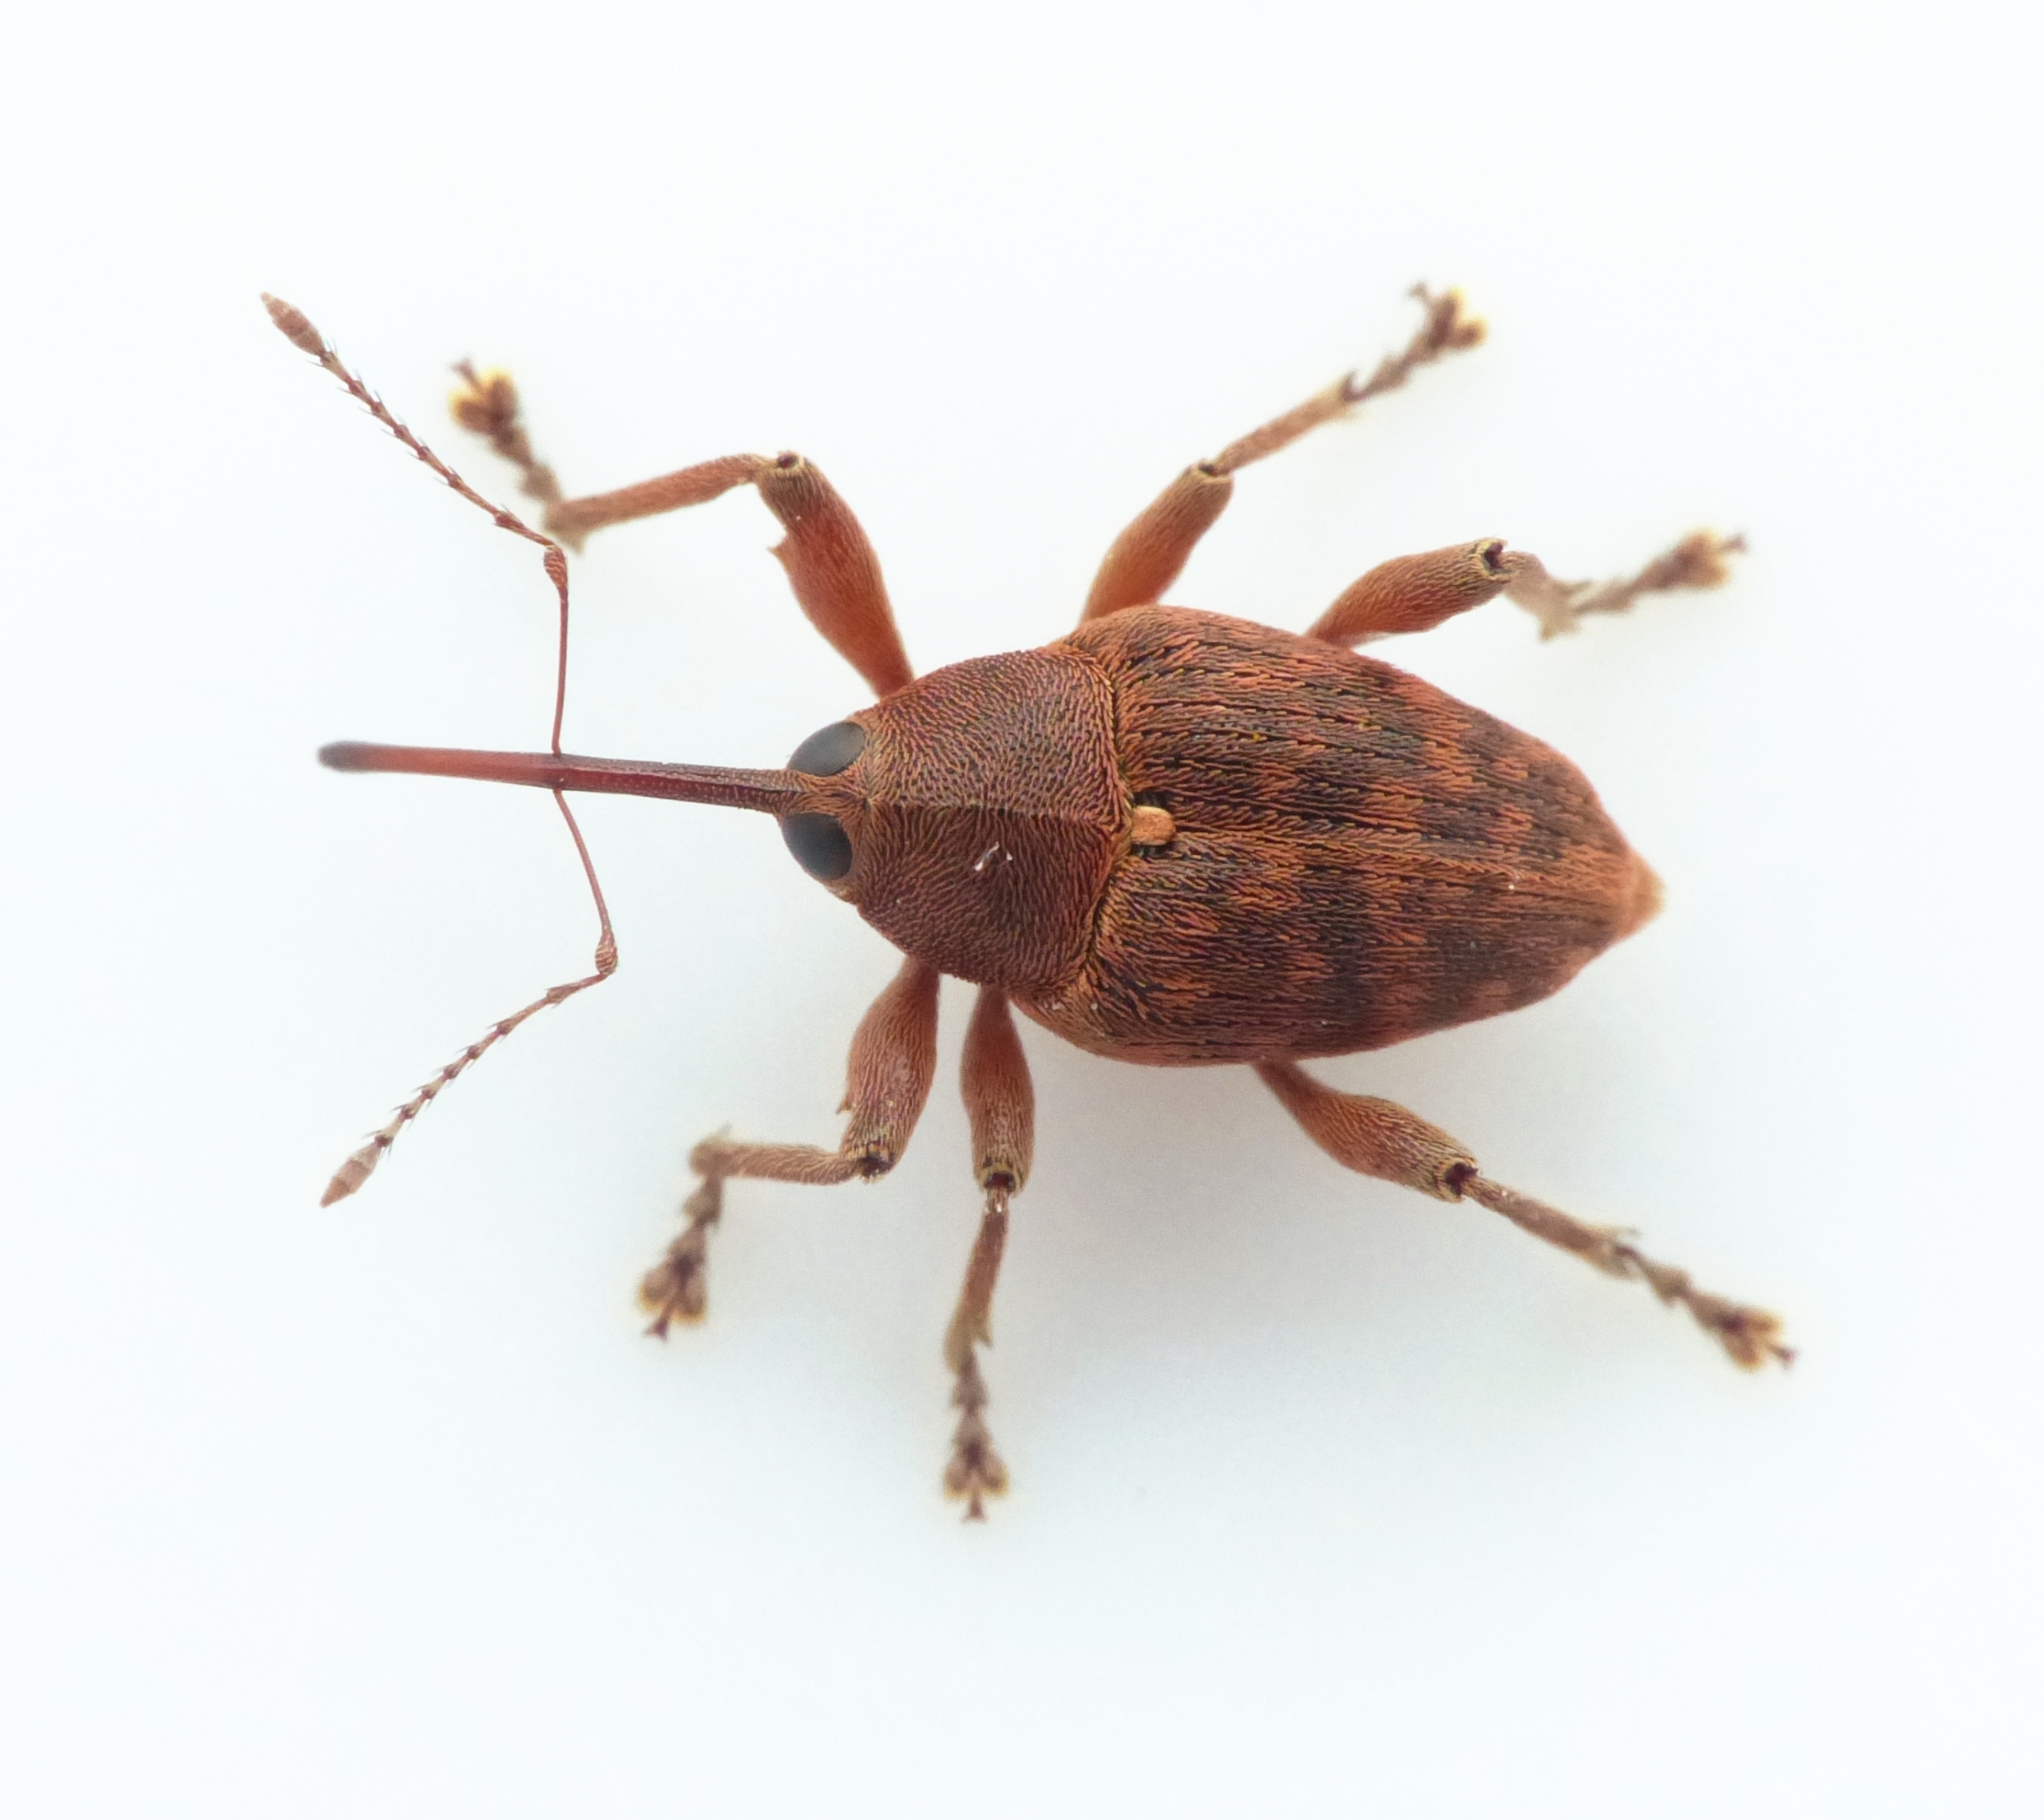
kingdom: Animalia
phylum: Arthropoda
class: Insecta
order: Coleoptera
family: Curculionidae
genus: Curculio
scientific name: Curculio glandium
